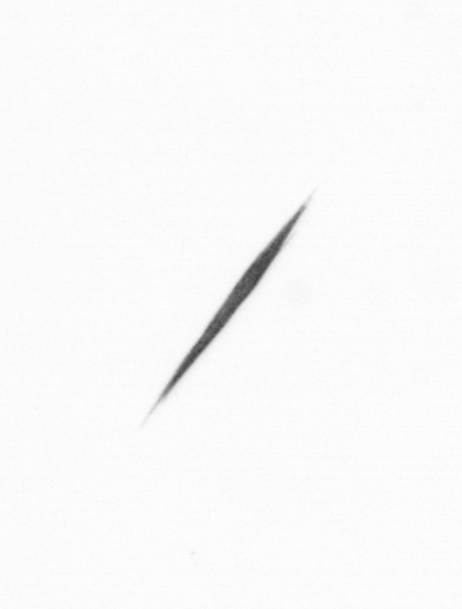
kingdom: Bacteria
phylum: Cyanobacteria
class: Cyanobacteriia
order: Cyanobacteriales
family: Microcoleaceae
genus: Trichodesmium
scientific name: Trichodesmium
